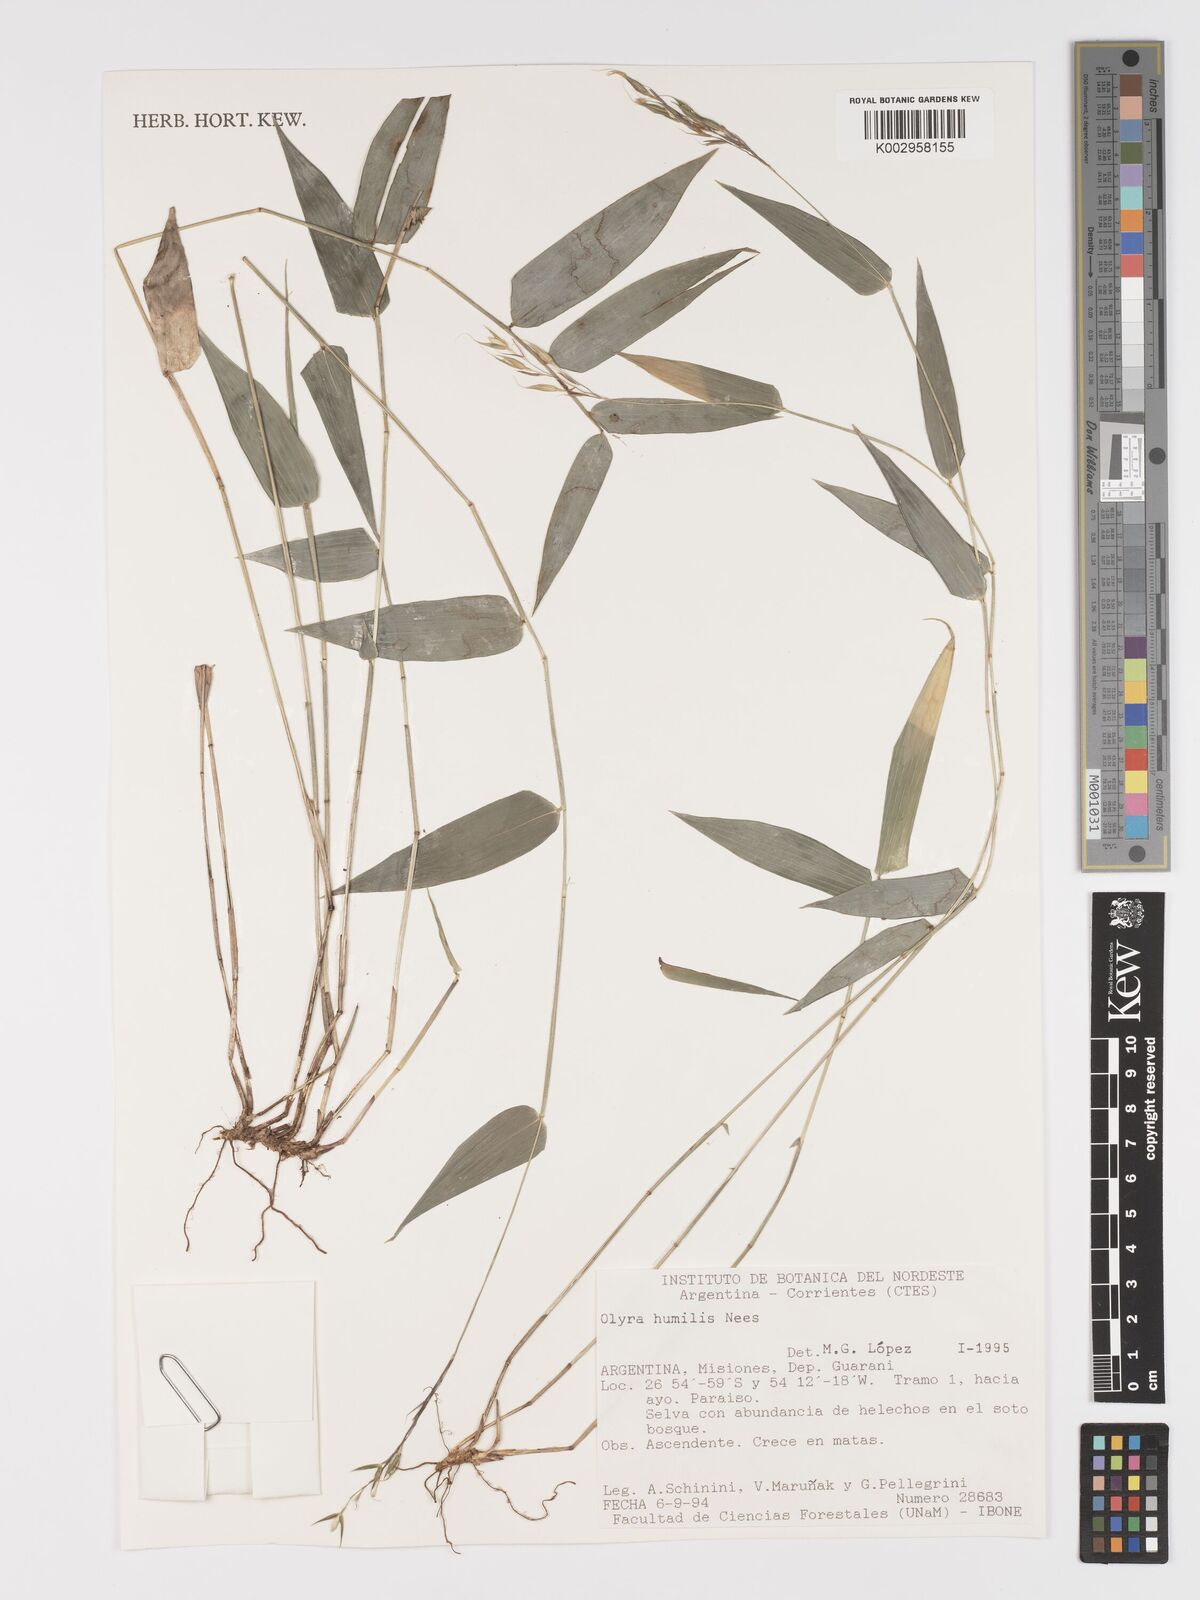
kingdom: Plantae
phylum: Tracheophyta
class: Liliopsida
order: Poales
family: Poaceae
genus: Olyra
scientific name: Olyra humilis
